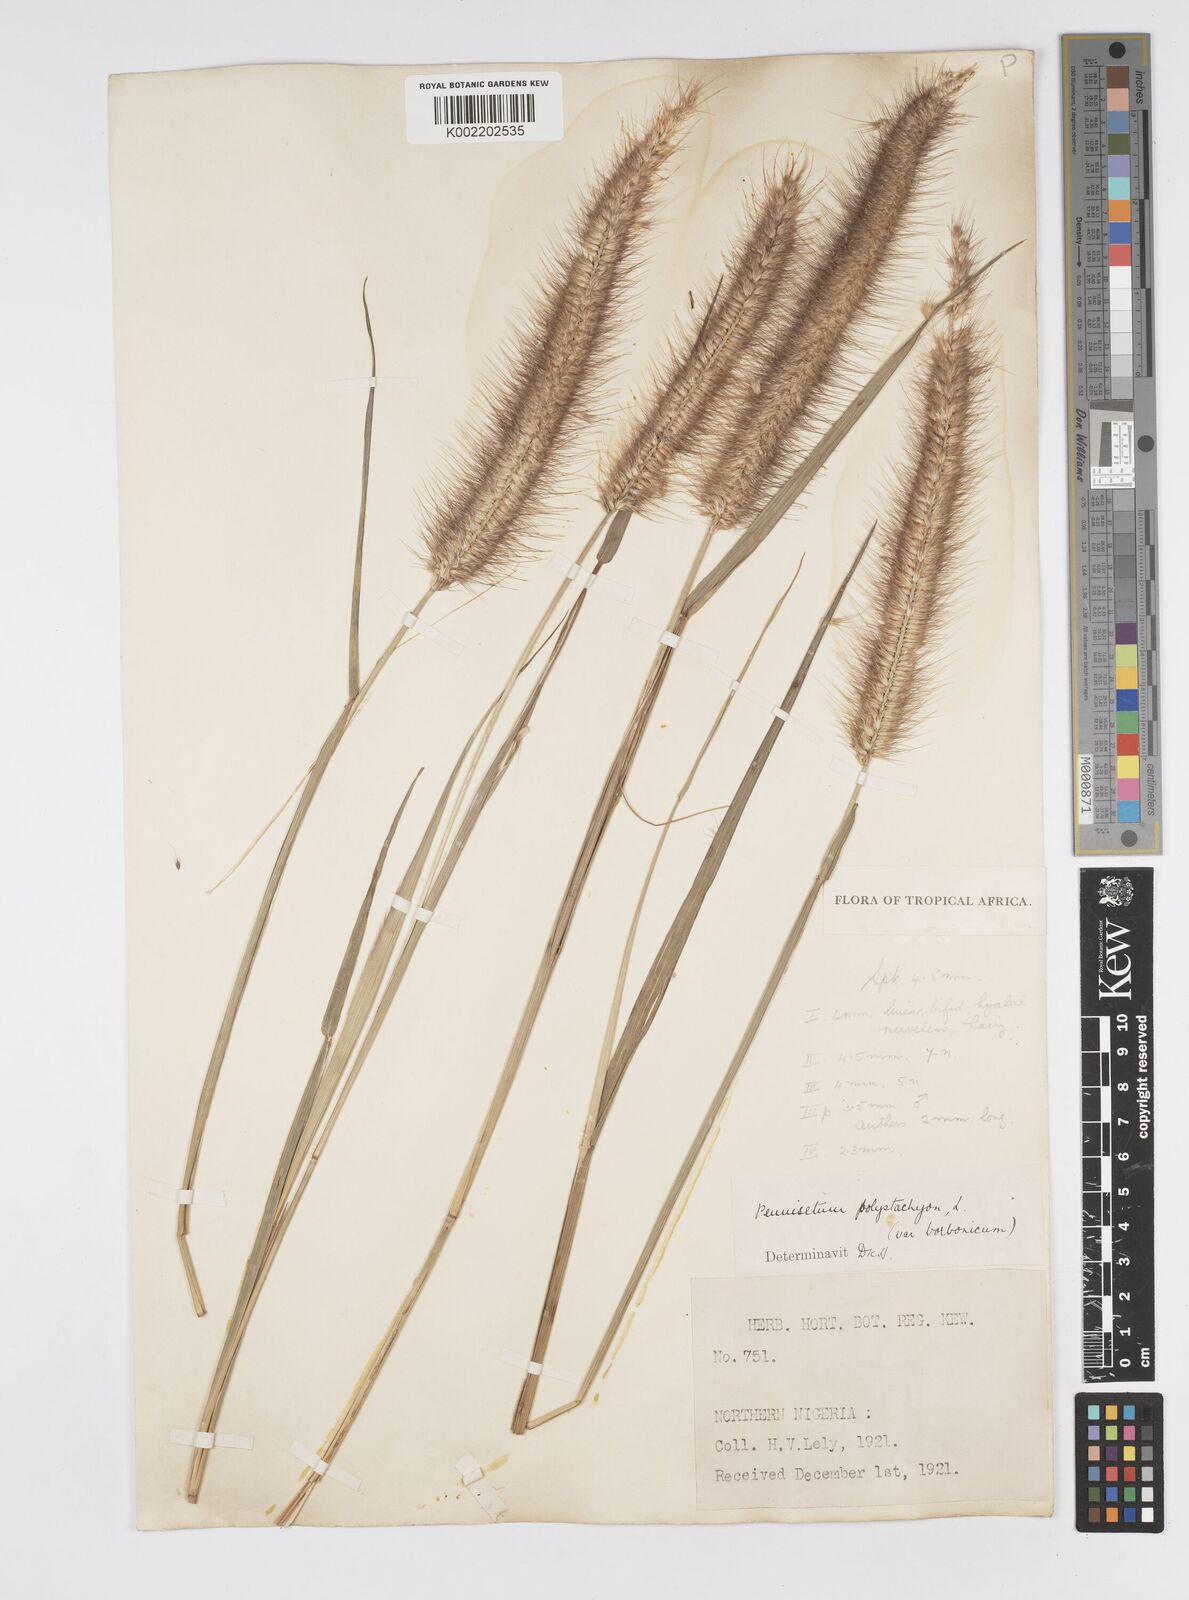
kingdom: Plantae
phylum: Tracheophyta
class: Liliopsida
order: Poales
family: Poaceae
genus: Setaria
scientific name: Setaria parviflora
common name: Knotroot bristle-grass
